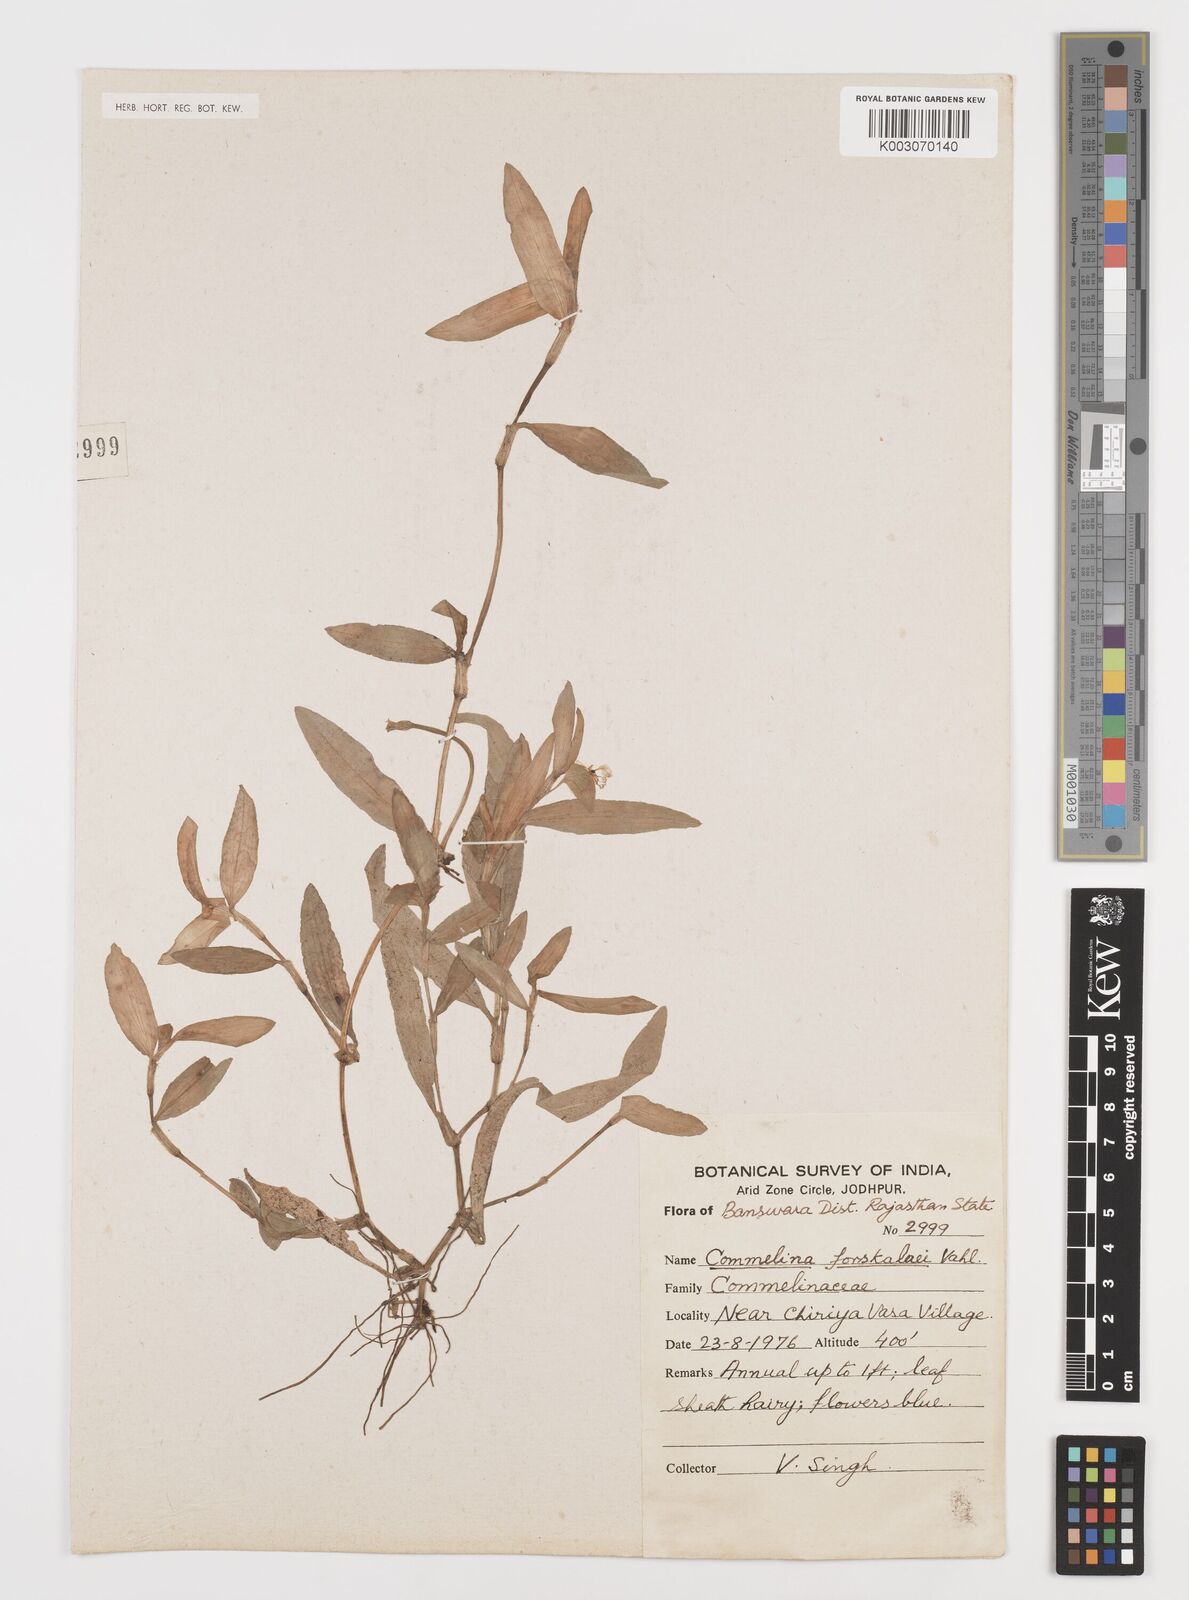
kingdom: Plantae
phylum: Tracheophyta
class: Liliopsida
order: Commelinales
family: Commelinaceae
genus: Commelina
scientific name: Commelina forskaolii
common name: Rat's ear
